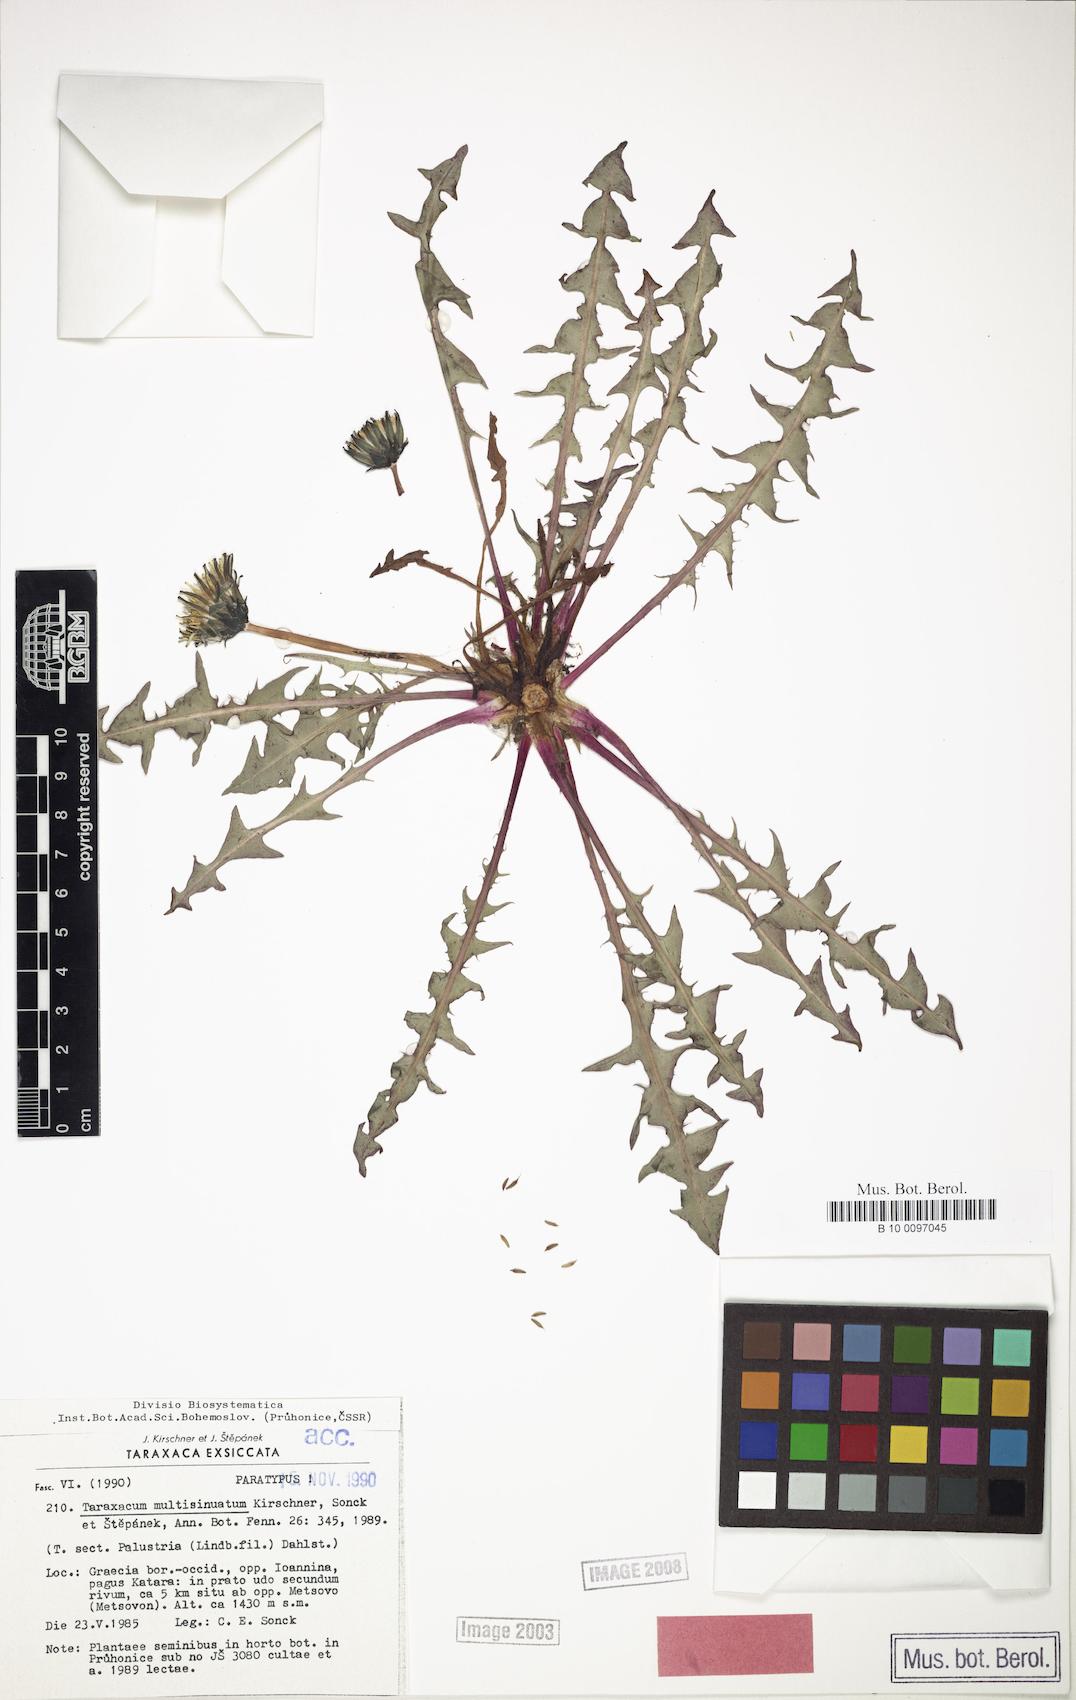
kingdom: Plantae
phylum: Tracheophyta
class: Magnoliopsida
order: Asterales
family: Asteraceae
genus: Taraxacum
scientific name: Taraxacum multisinuatum
